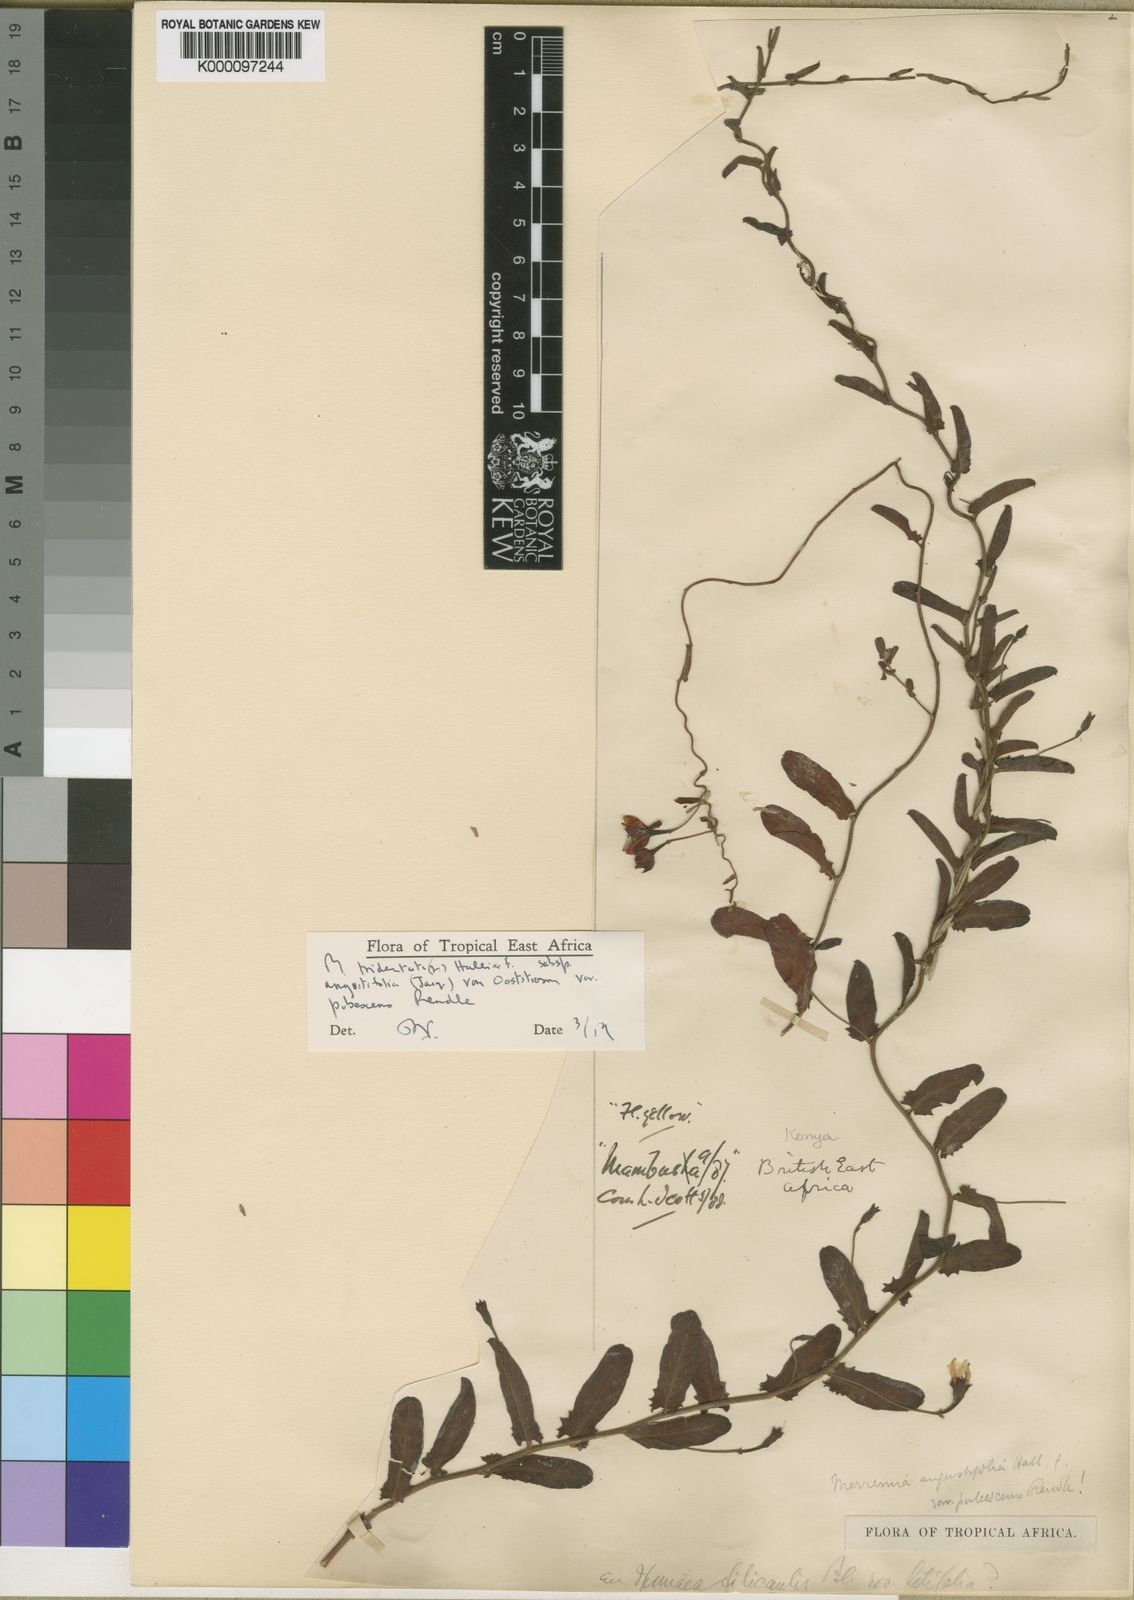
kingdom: Plantae
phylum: Tracheophyta
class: Magnoliopsida
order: Solanales
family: Convolvulaceae
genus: Xenostegia
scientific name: Xenostegia tridentata
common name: African morningvine
